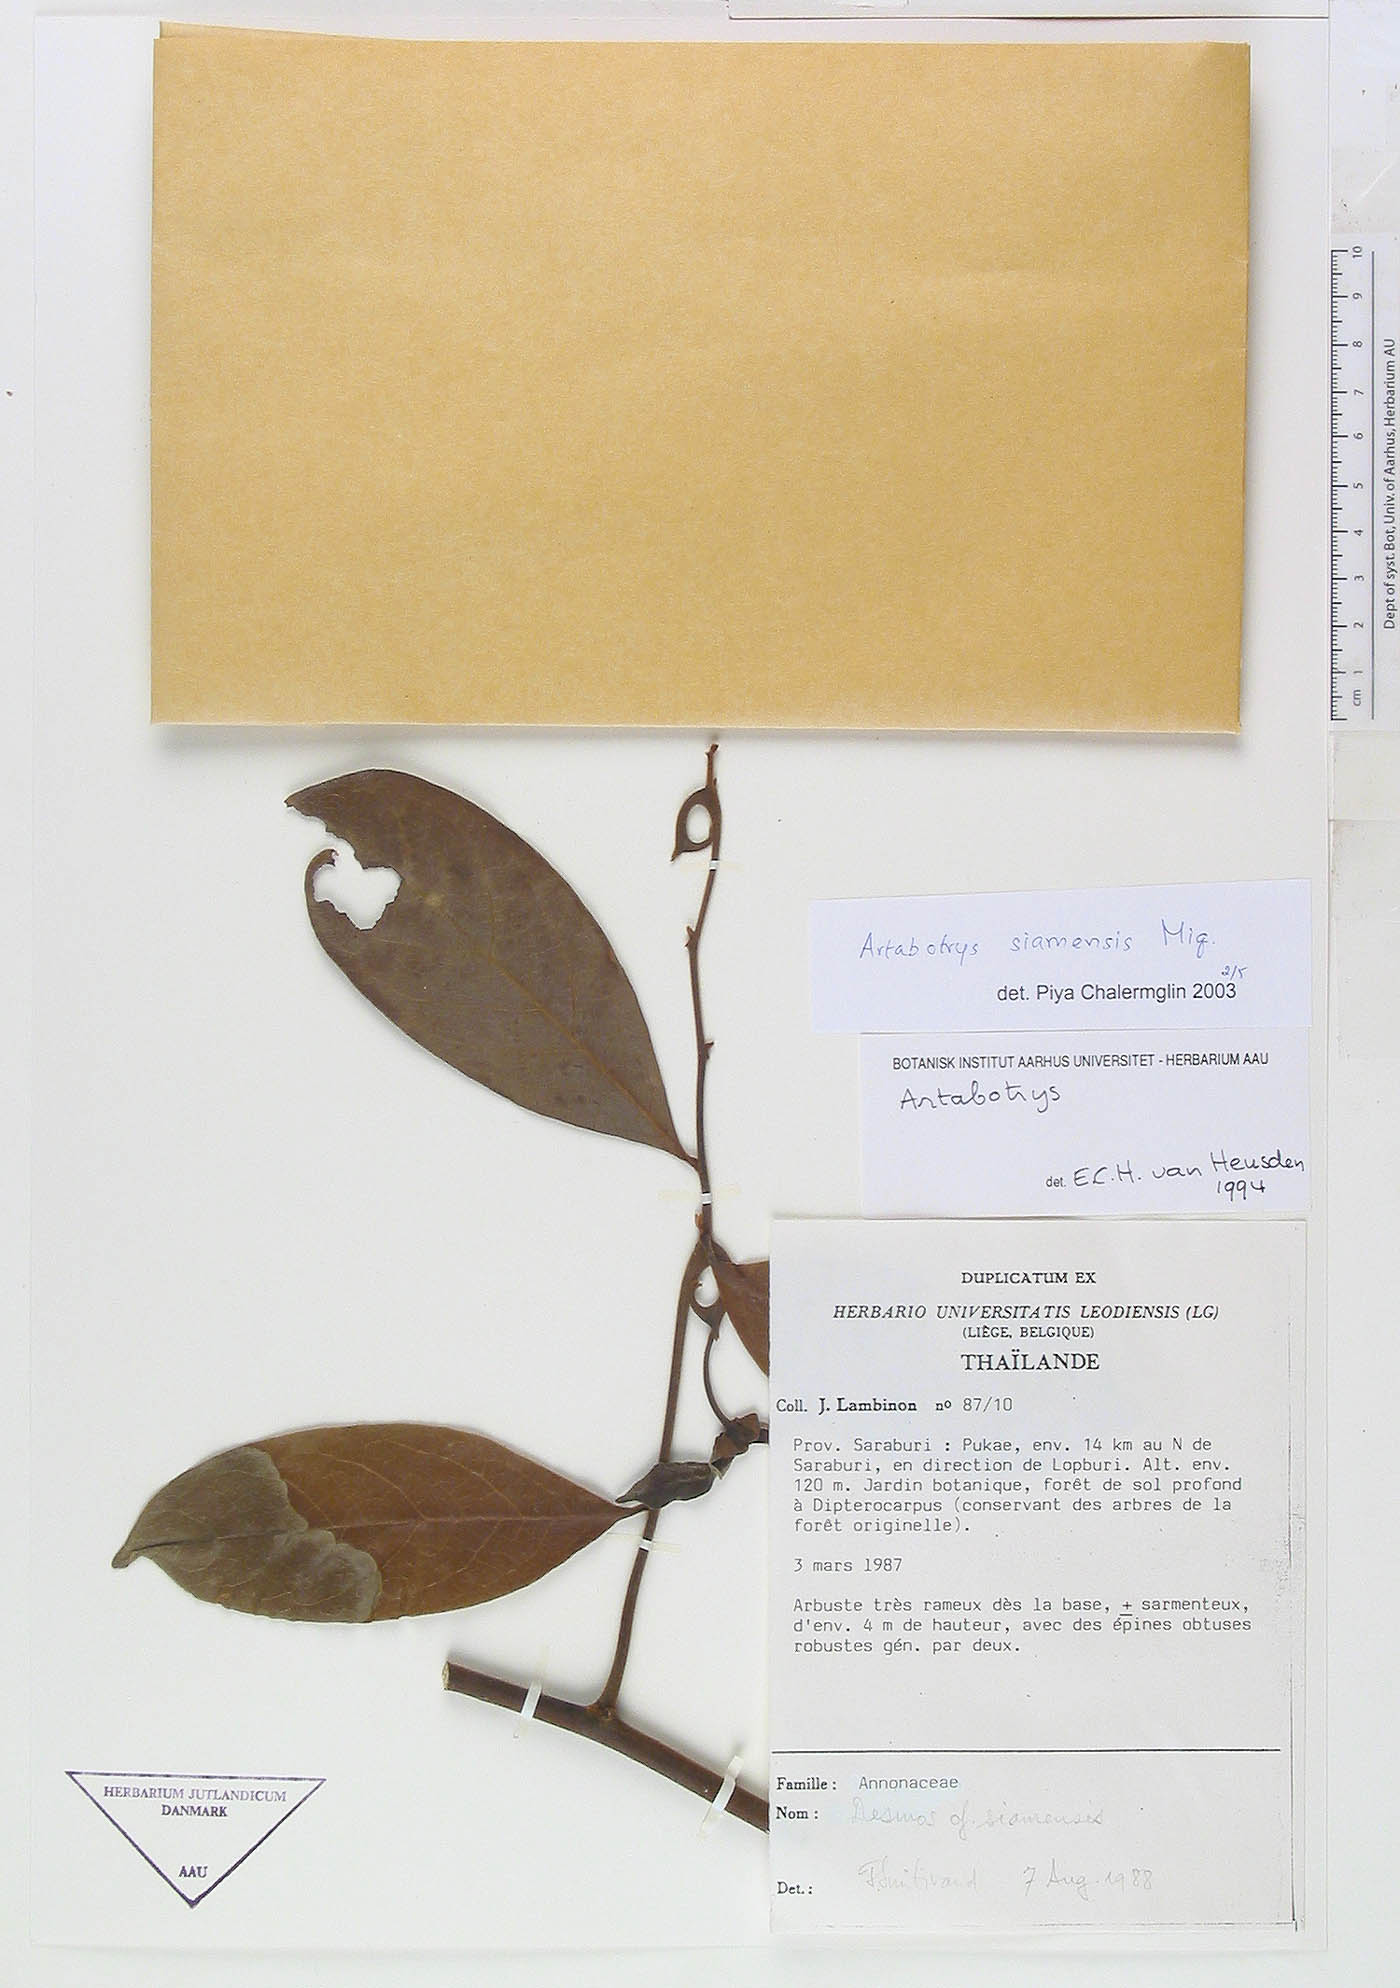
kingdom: Plantae
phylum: Tracheophyta
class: Magnoliopsida
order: Magnoliales
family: Annonaceae
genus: Artabotrys
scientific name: Artabotrys siamensis
